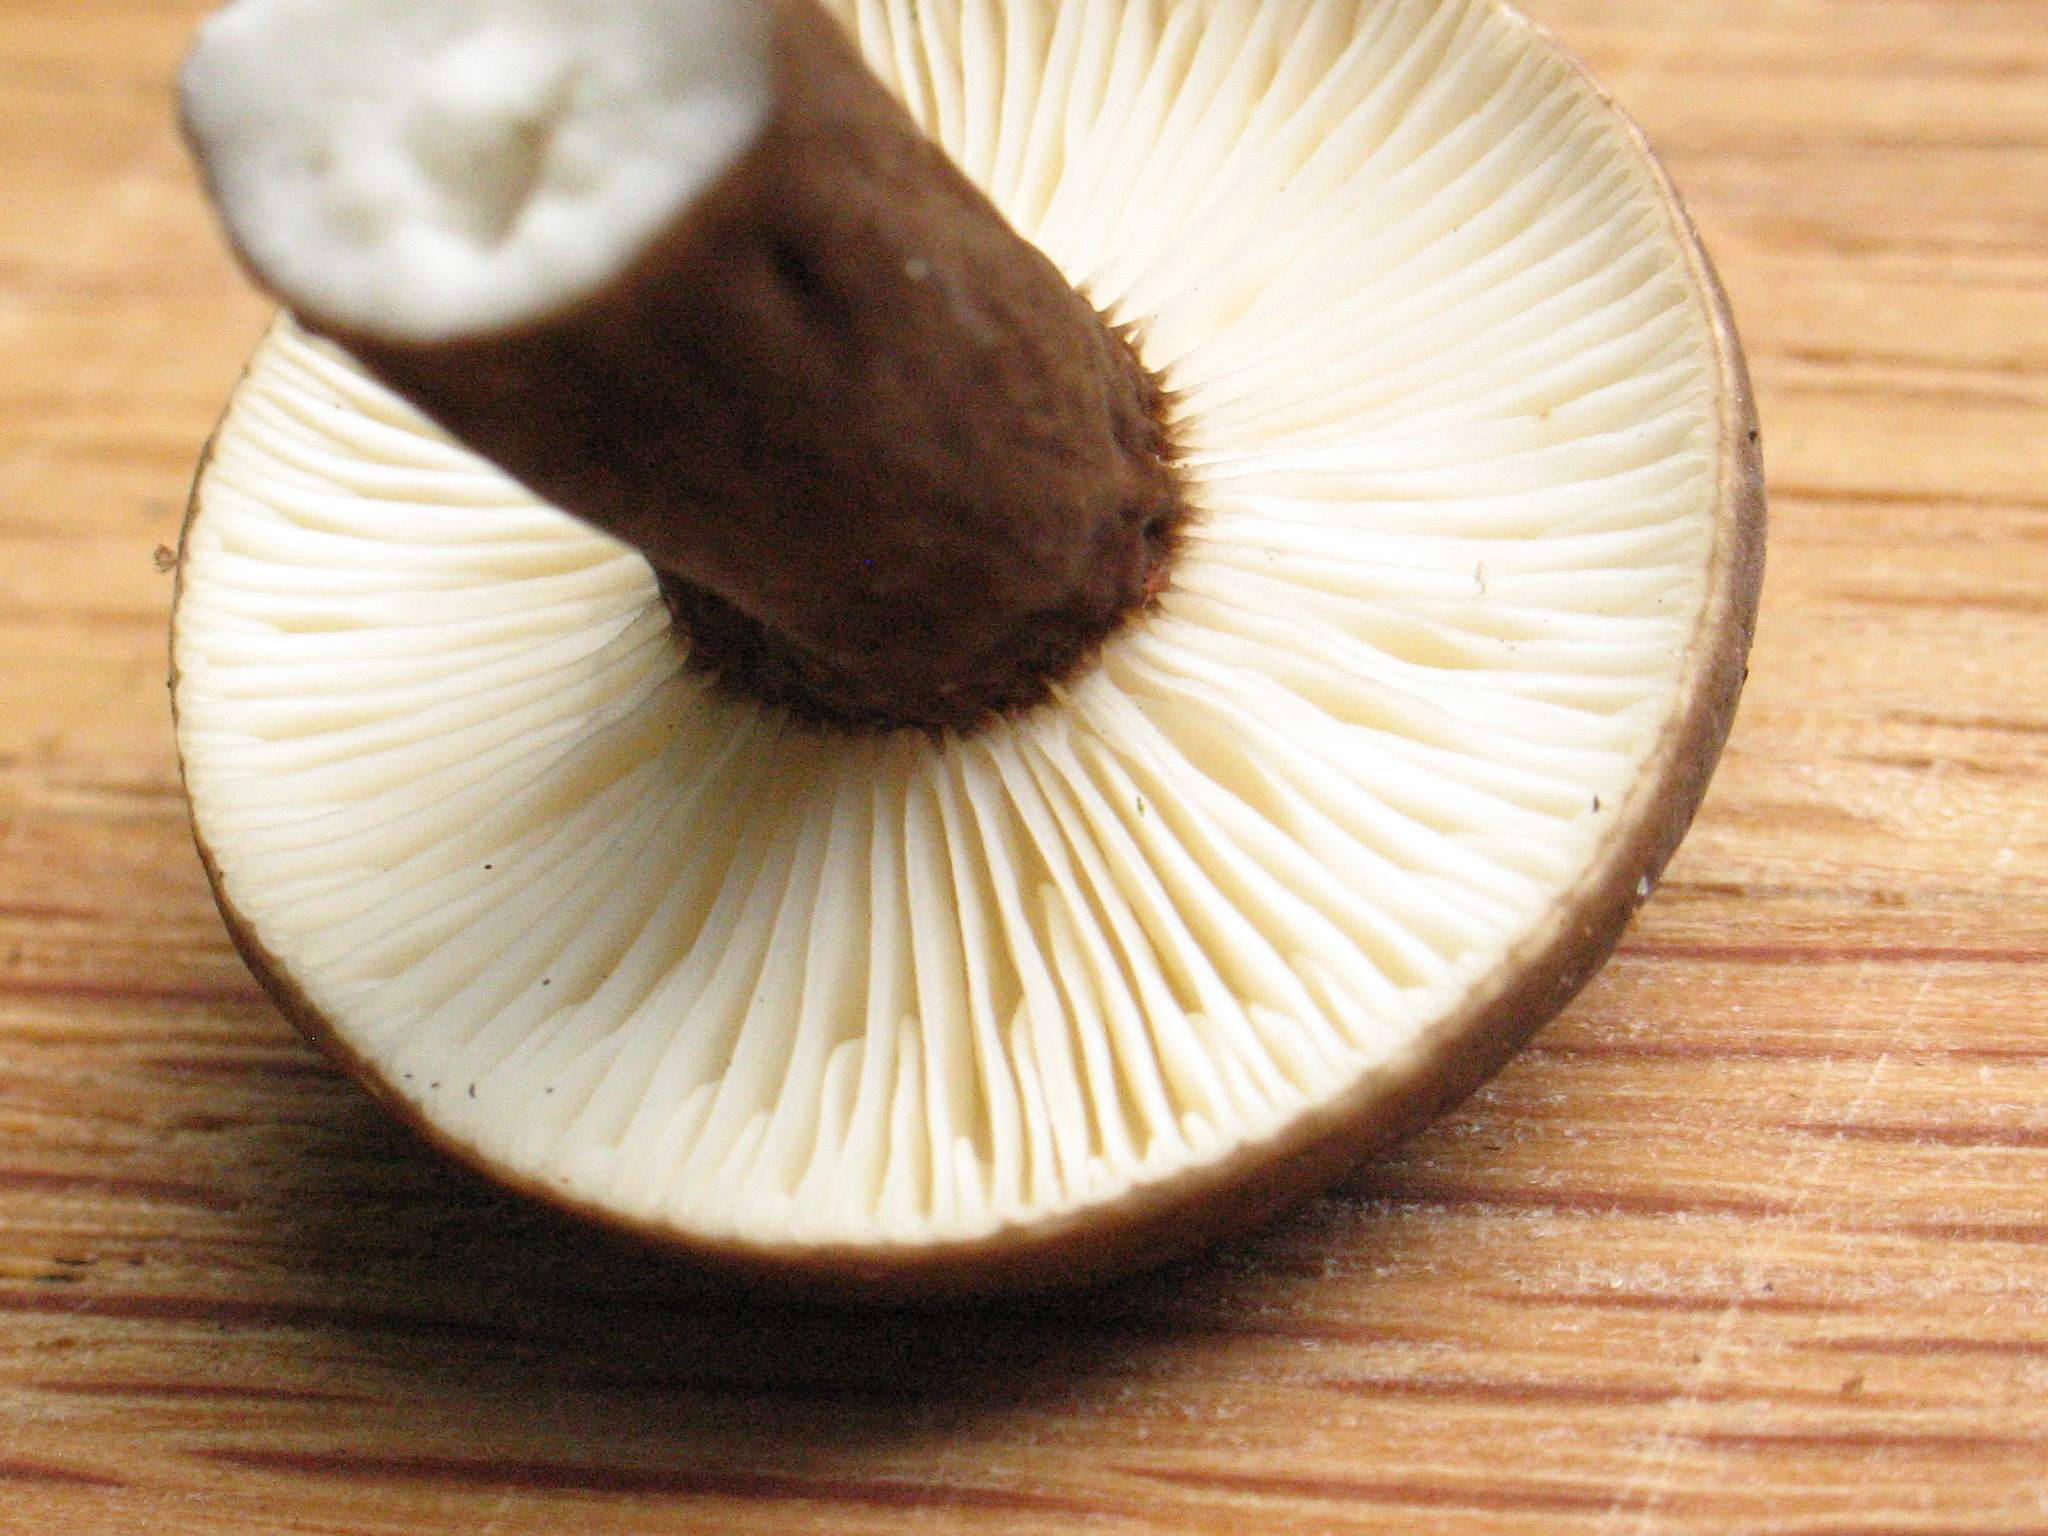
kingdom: Fungi
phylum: Basidiomycota
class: Agaricomycetes
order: Russulales
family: Russulaceae
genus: Lactarius
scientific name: Lactarius lignyotus
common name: fløjls-mælkehat
